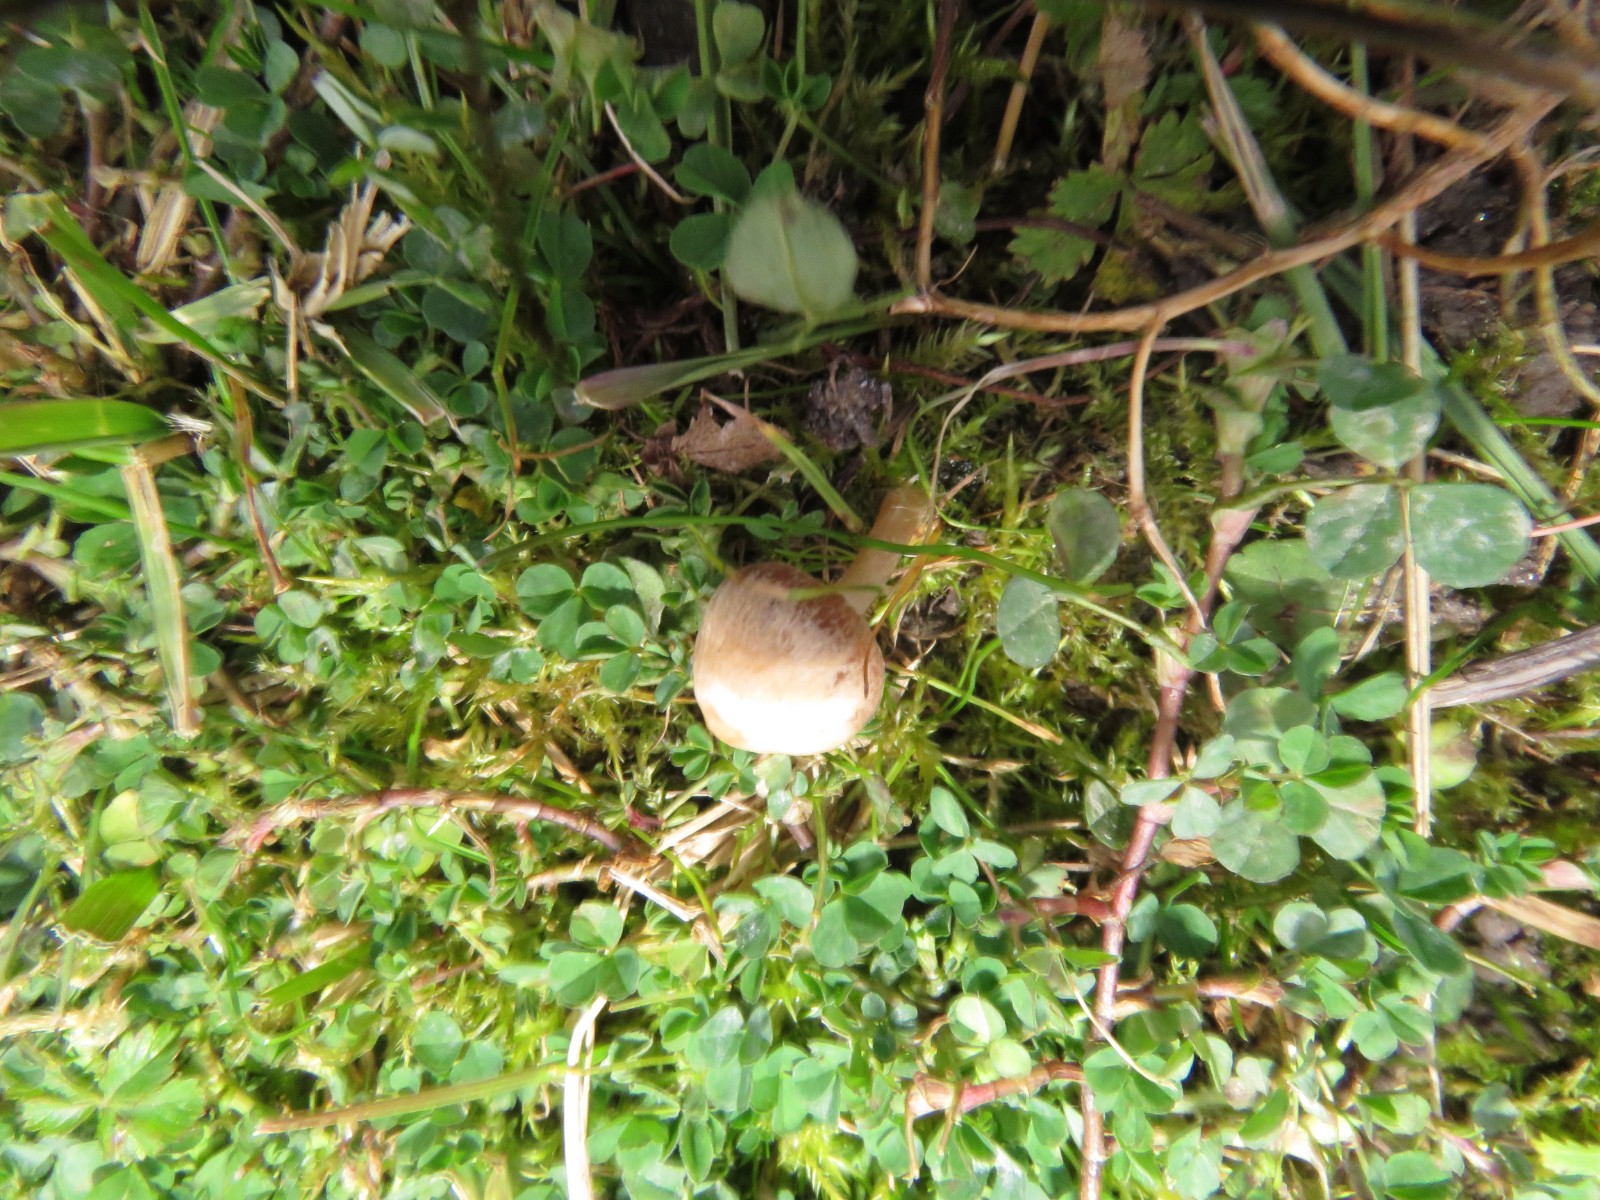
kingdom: Fungi
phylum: Basidiomycota
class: Agaricomycetes
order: Agaricales
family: Bolbitiaceae
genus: Panaeolina
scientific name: Panaeolina foenisecii
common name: høslætsvamp
